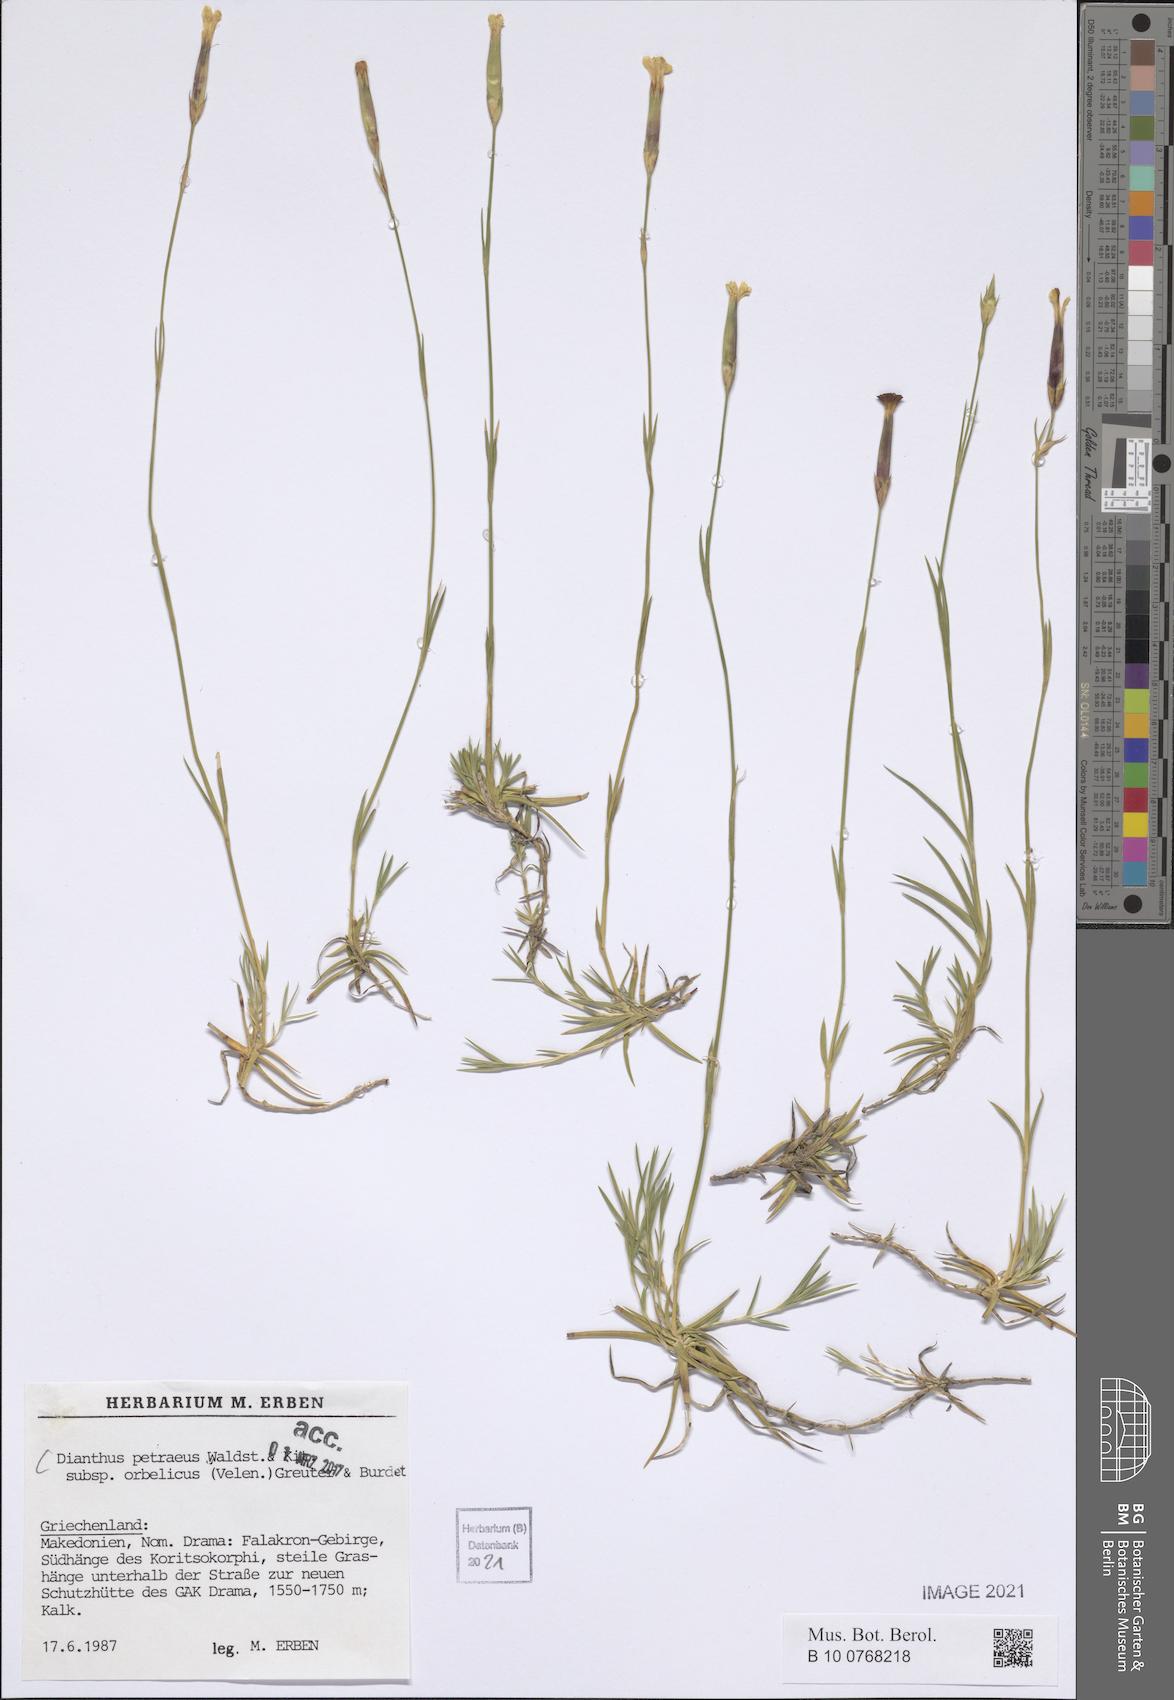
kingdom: Plantae
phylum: Tracheophyta
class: Magnoliopsida
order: Caryophyllales
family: Caryophyllaceae
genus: Dianthus
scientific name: Dianthus petraeus
